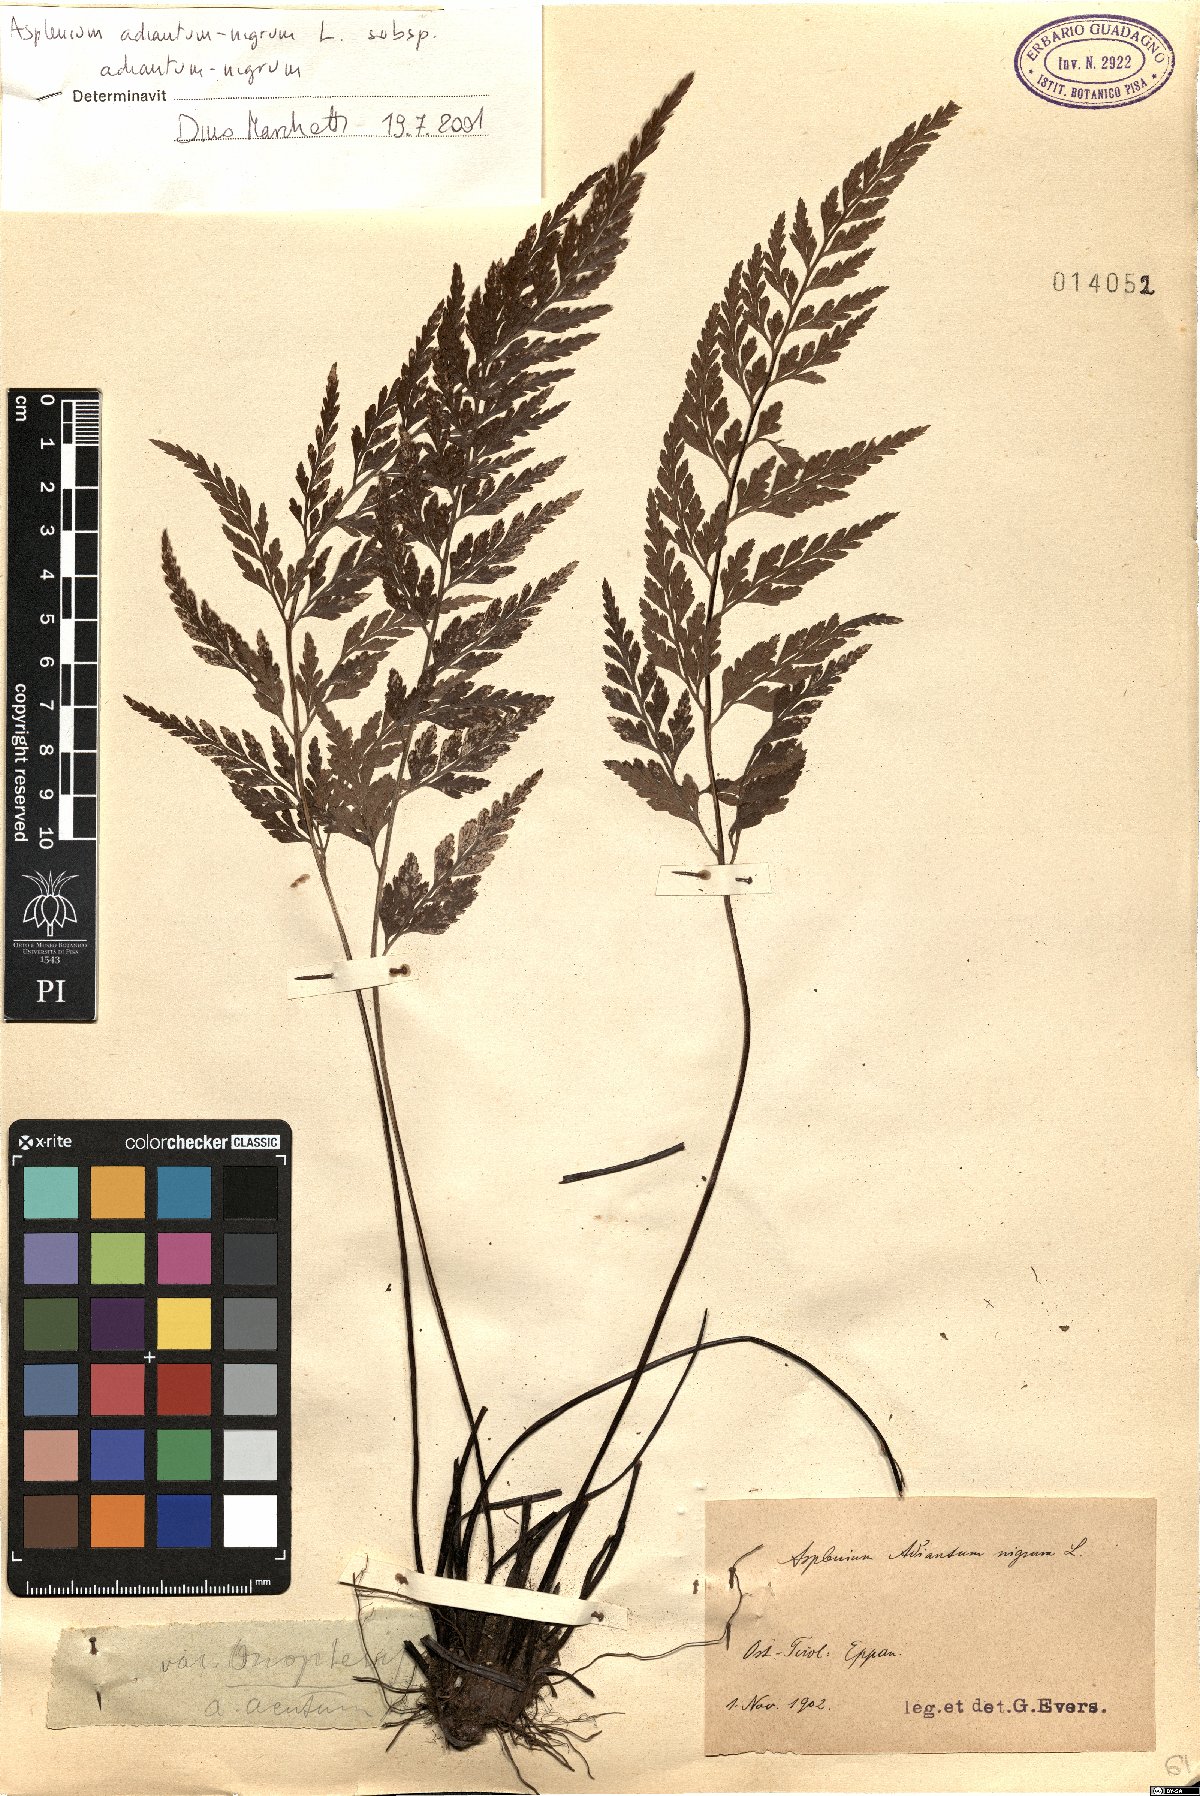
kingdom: Plantae
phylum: Tracheophyta
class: Polypodiopsida
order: Polypodiales
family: Aspleniaceae
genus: Asplenium
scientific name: Asplenium adiantum-nigrum
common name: Black spleenwort
